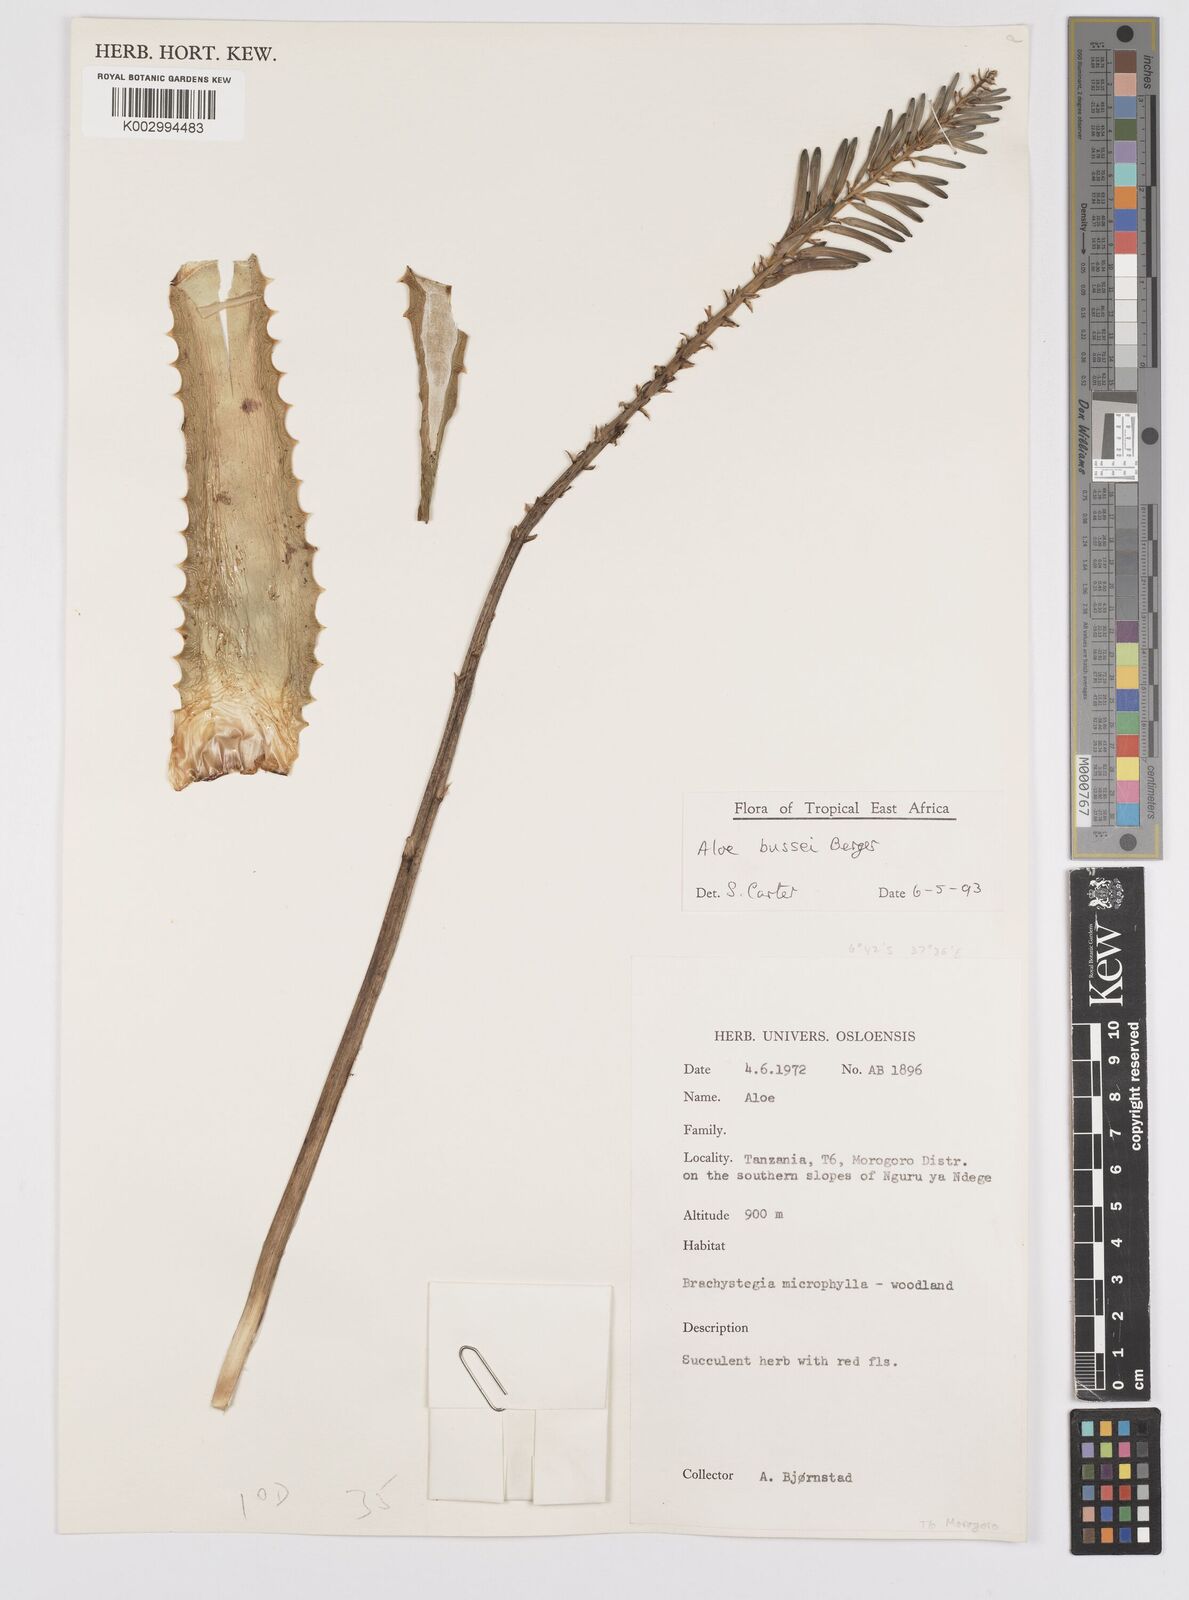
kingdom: Plantae
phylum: Tracheophyta
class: Liliopsida
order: Asparagales
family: Asphodelaceae
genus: Aloe
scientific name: Aloe bussei
